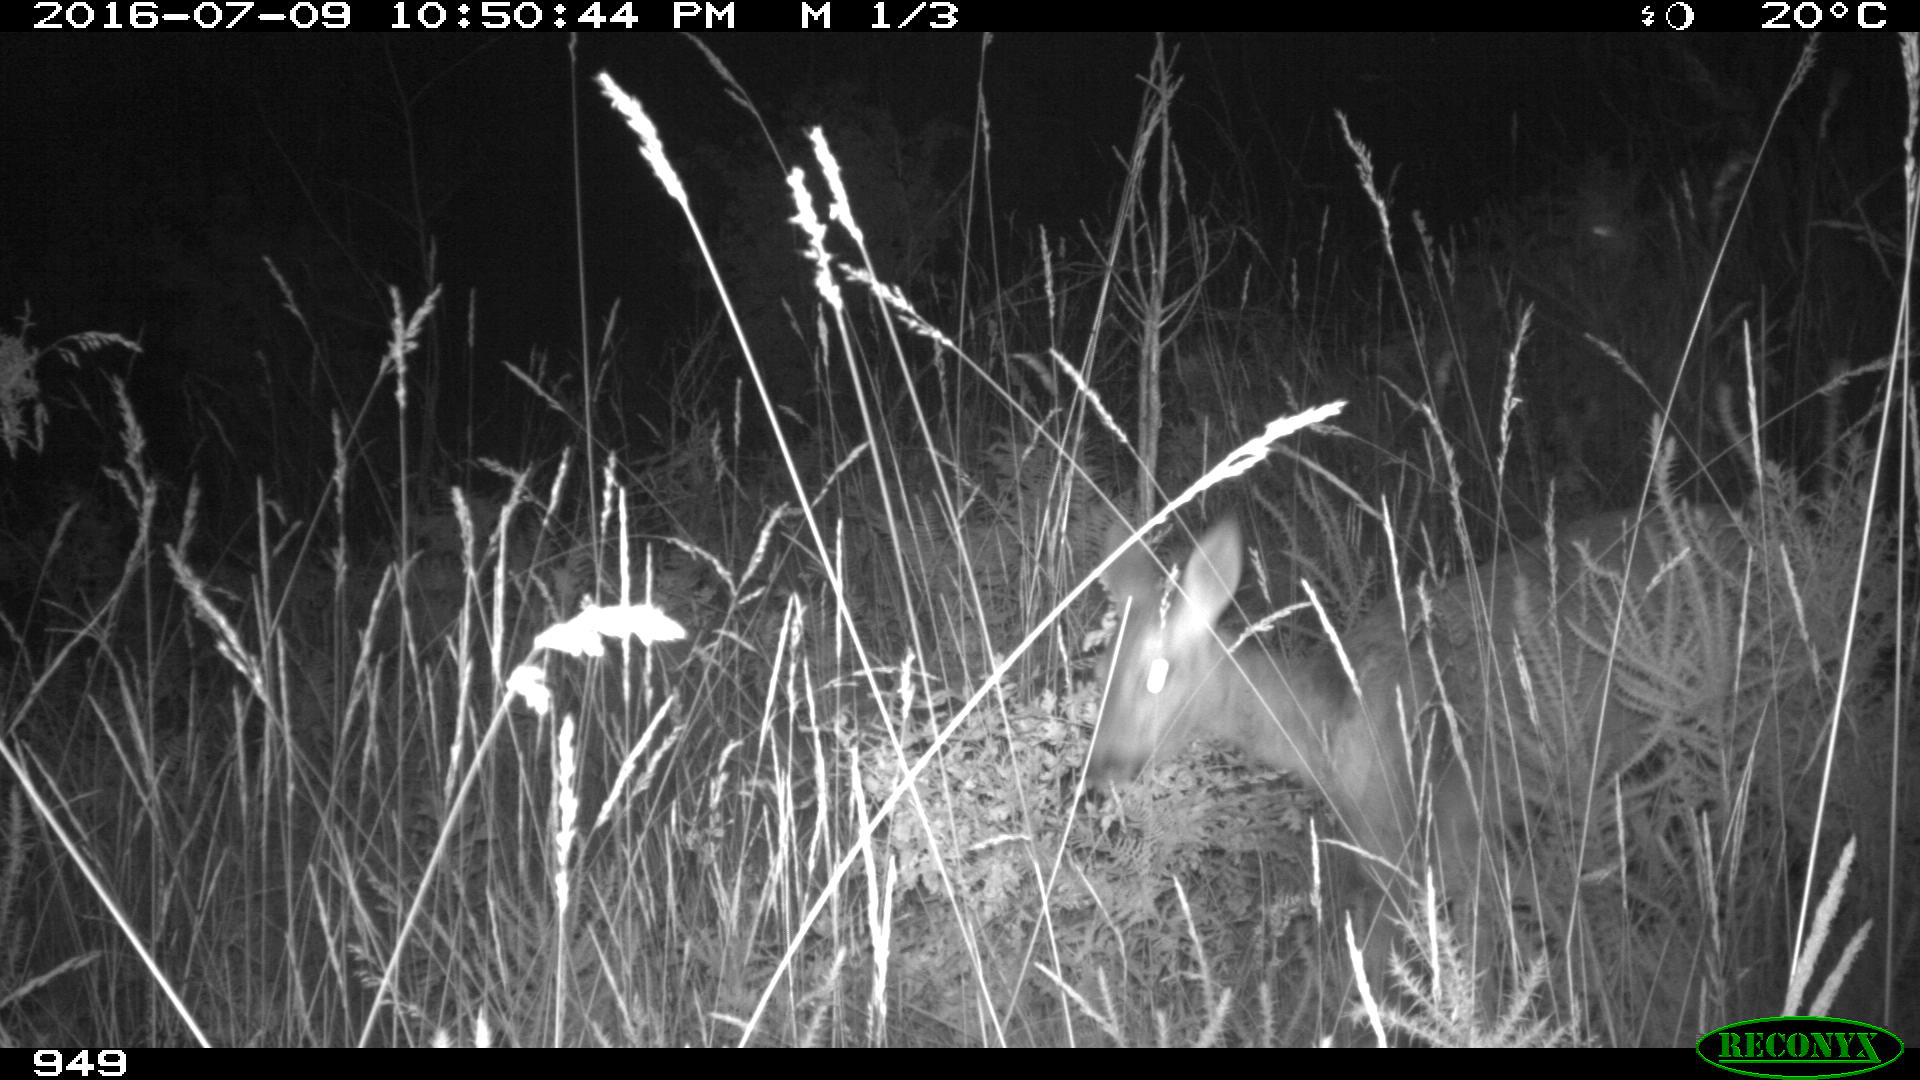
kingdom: Animalia
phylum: Chordata
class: Mammalia
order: Artiodactyla
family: Cervidae
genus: Capreolus
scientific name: Capreolus capreolus
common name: Western roe deer
